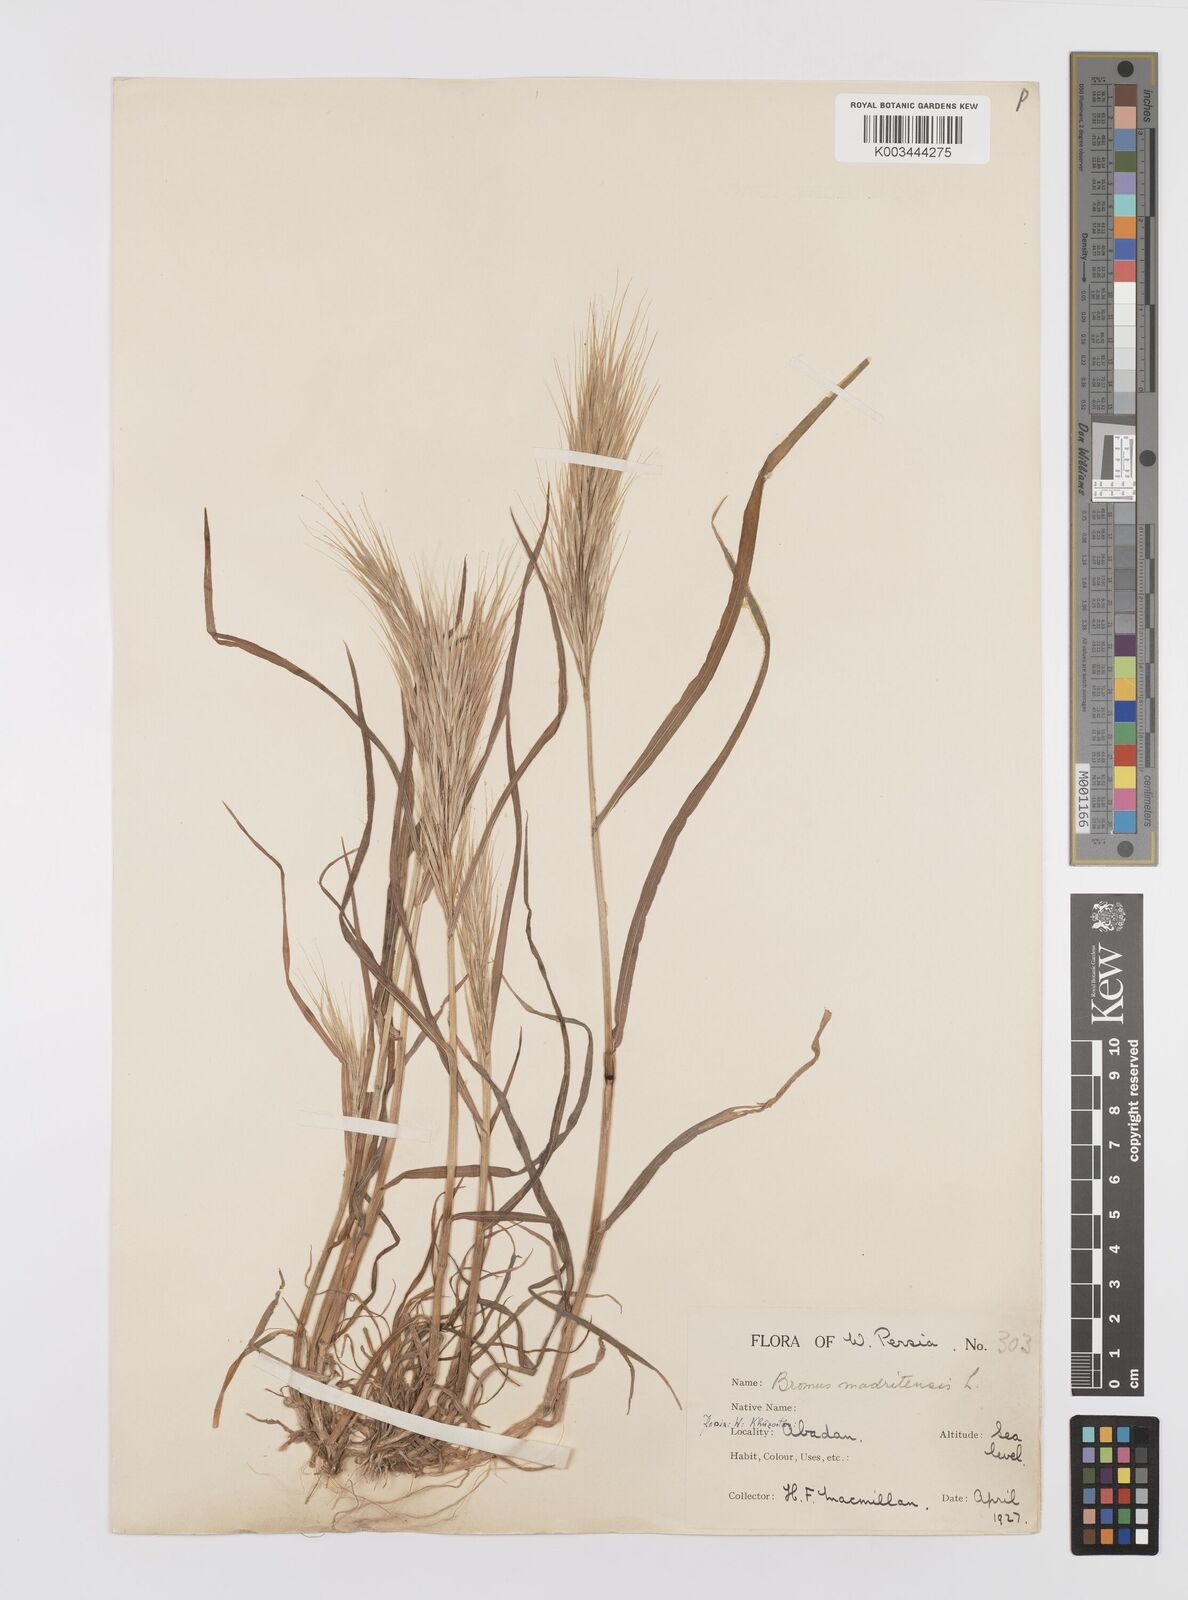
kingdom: Plantae
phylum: Tracheophyta
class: Liliopsida
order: Poales
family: Poaceae
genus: Bromus
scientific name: Bromus madritensis
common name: Compact brome
